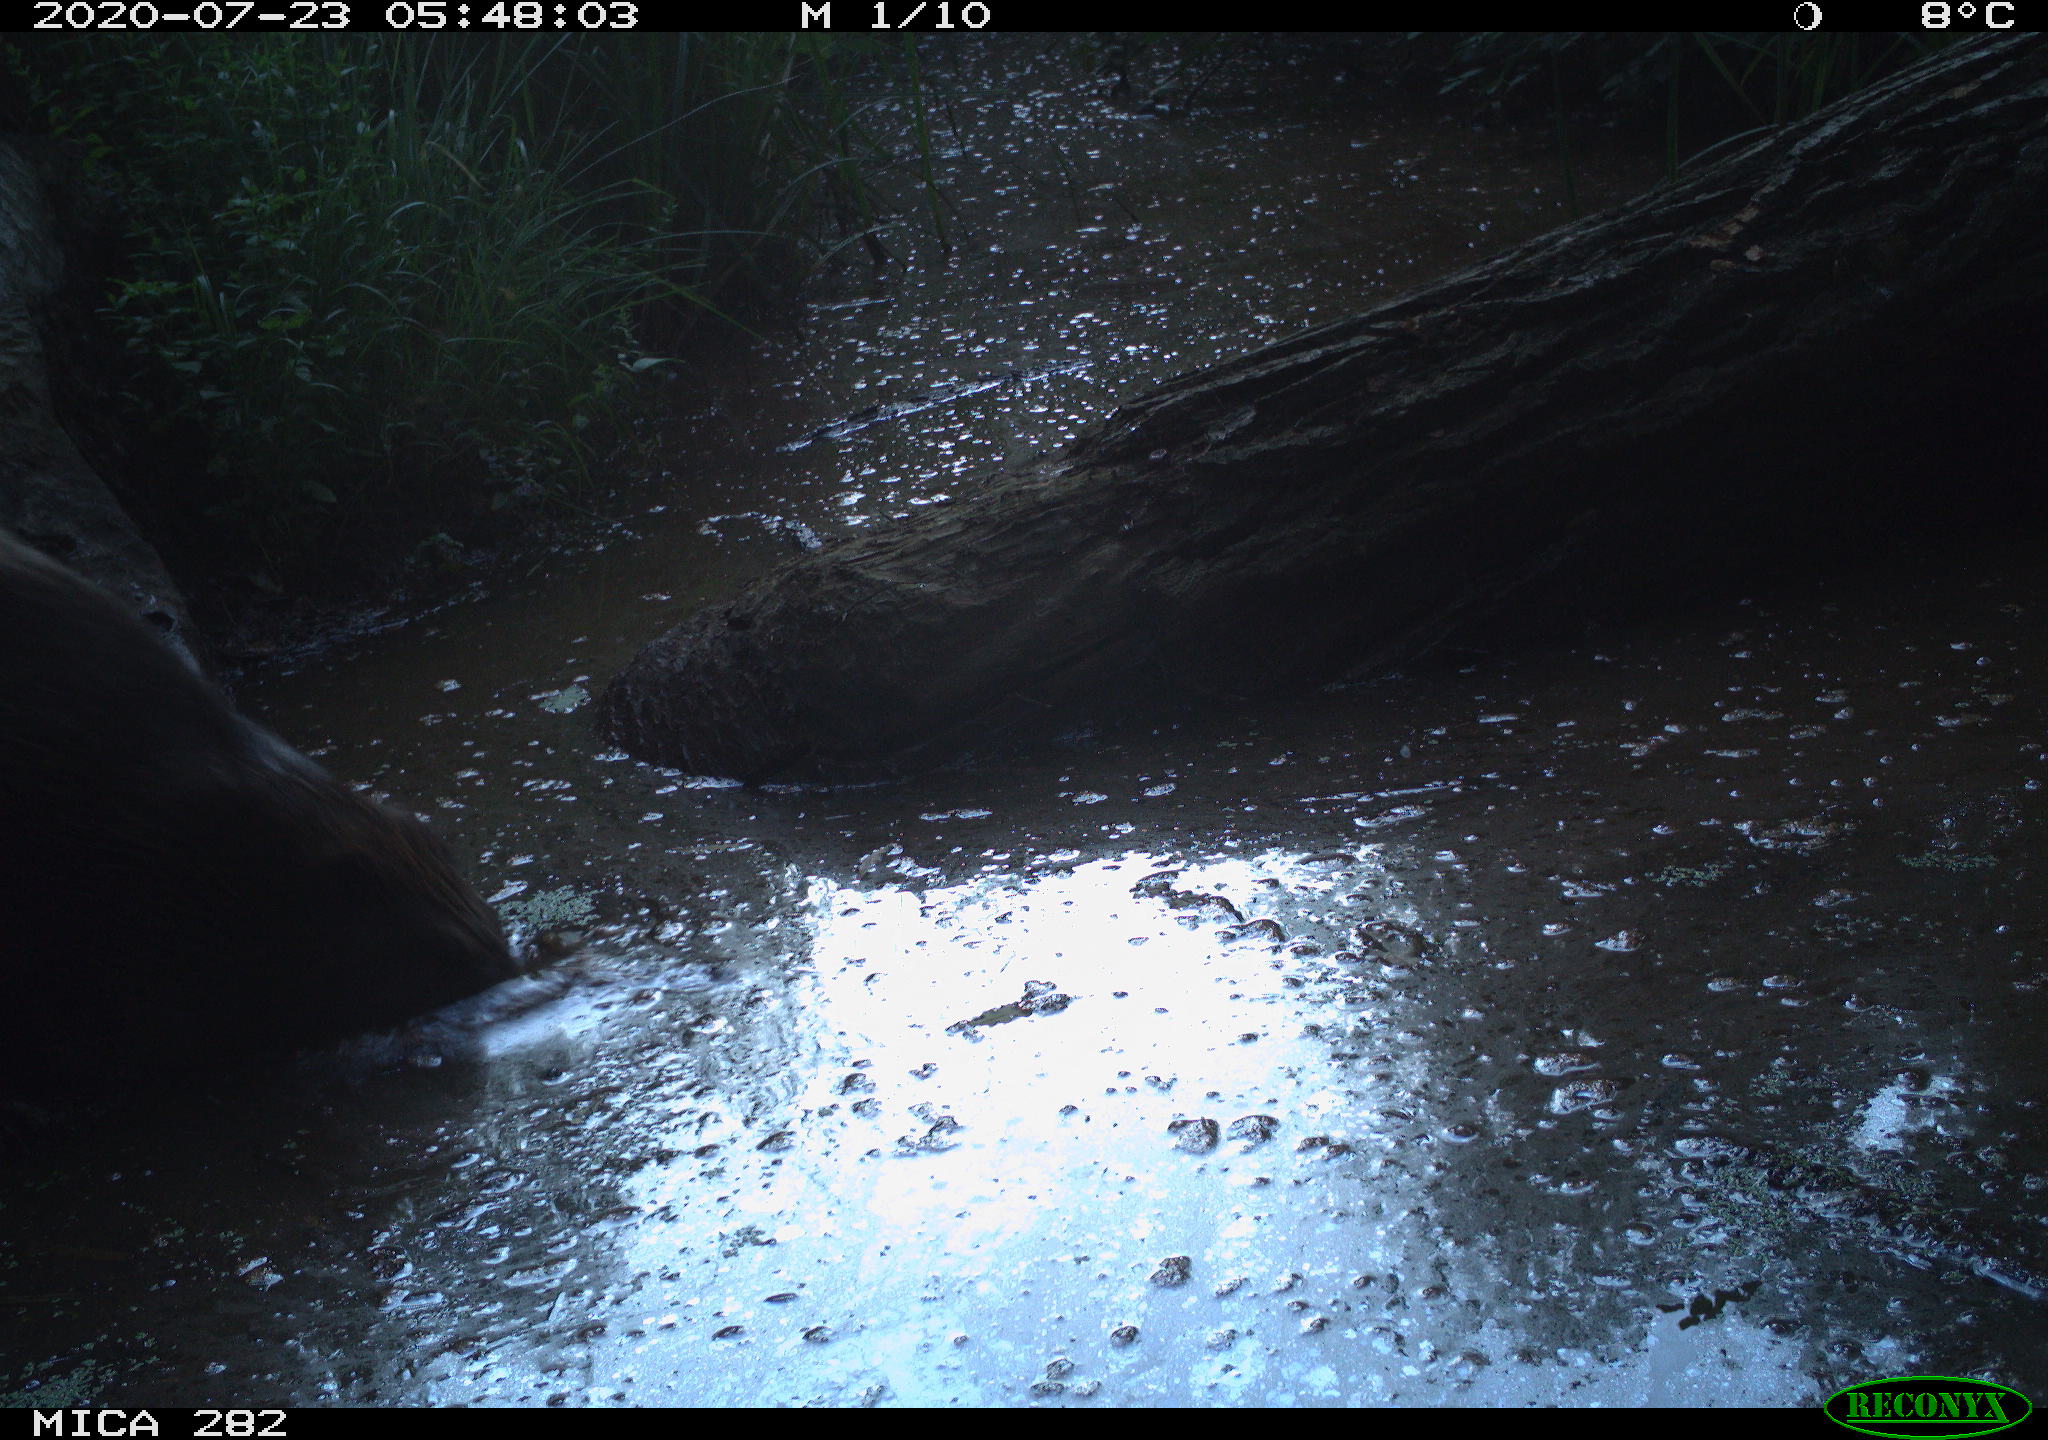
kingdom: Animalia
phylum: Chordata
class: Mammalia
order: Rodentia
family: Castoridae
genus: Castor
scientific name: Castor fiber
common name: Eurasian beaver
